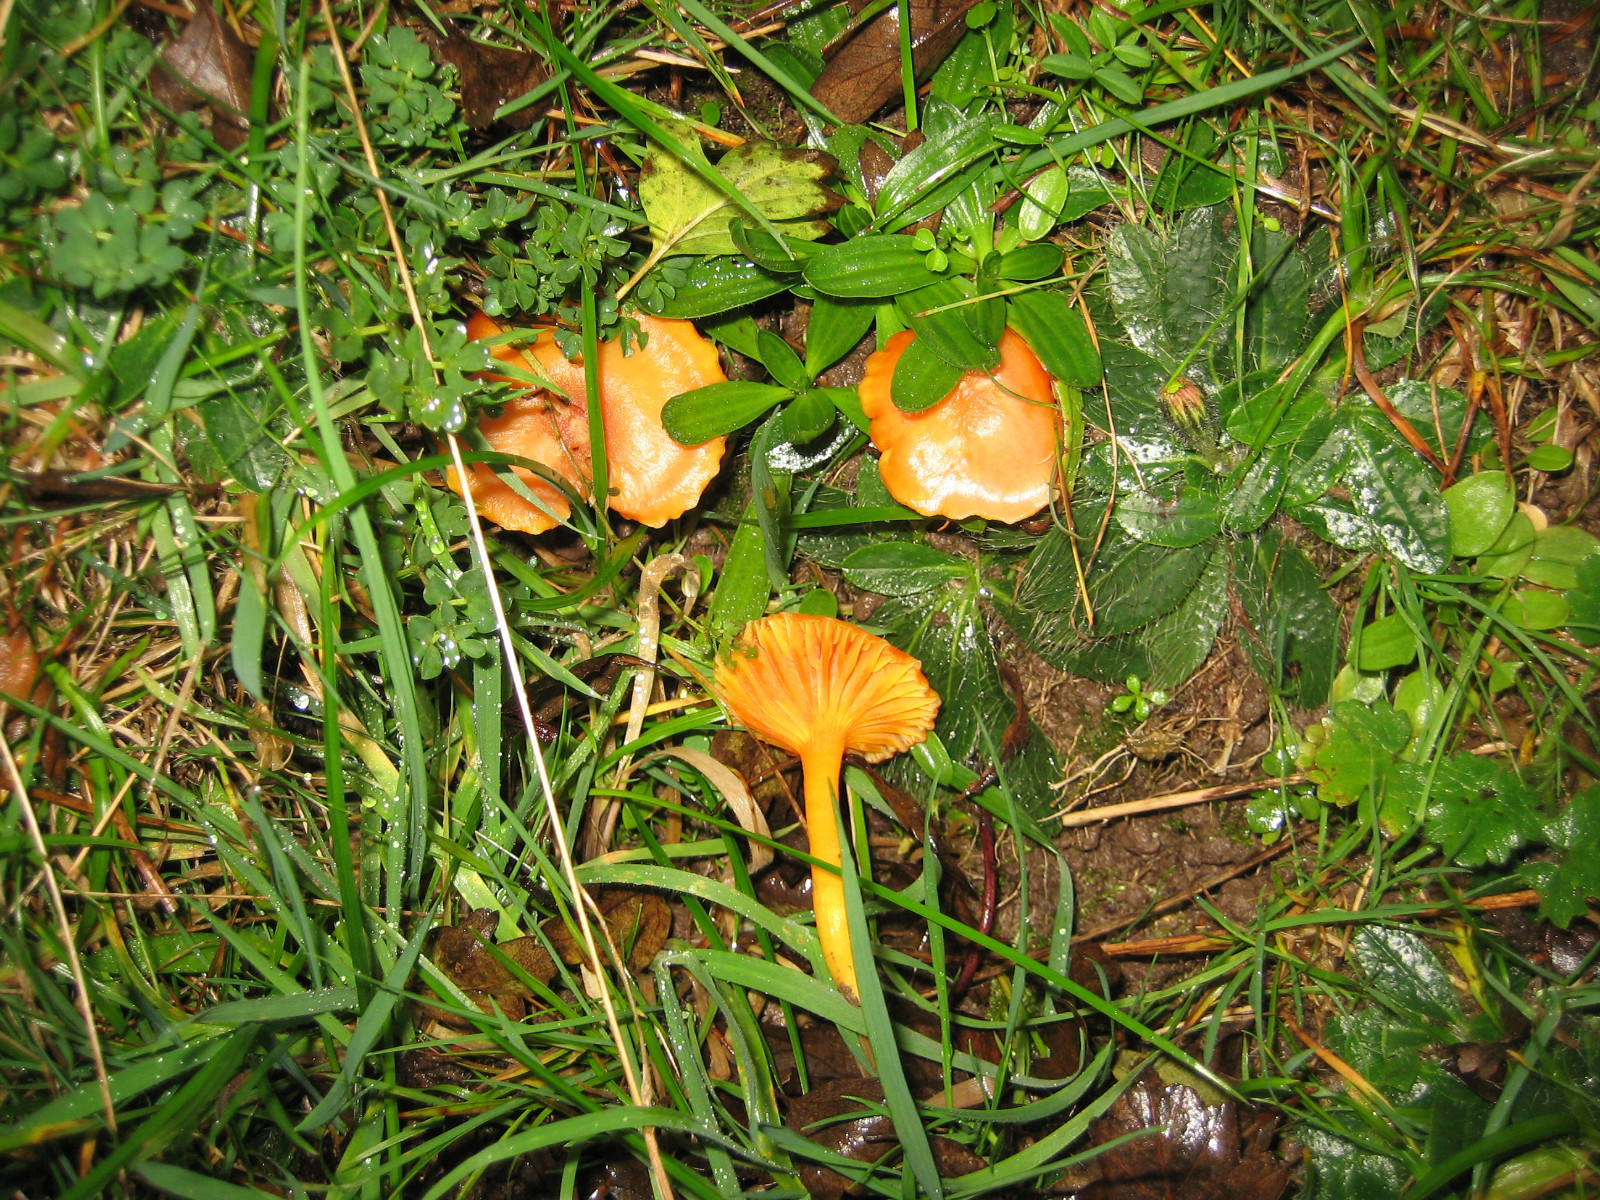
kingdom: Fungi
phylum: Basidiomycota
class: Agaricomycetes
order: Agaricales
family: Hygrophoraceae
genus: Hygrocybe
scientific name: Hygrocybe reidii
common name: honning-vokshat
